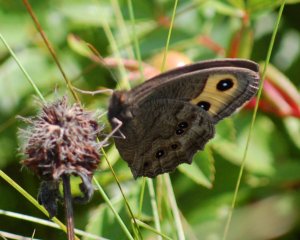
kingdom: Animalia
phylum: Arthropoda
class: Insecta
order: Lepidoptera
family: Nymphalidae
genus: Cercyonis
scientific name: Cercyonis pegala
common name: Common Wood-Nymph
